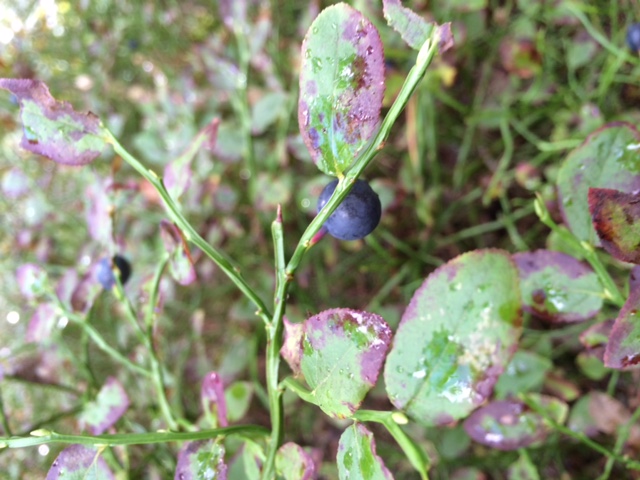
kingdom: Plantae
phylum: Tracheophyta
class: Magnoliopsida
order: Ericales
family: Ericaceae
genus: Vaccinium
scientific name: Vaccinium myrtillus
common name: Bilberry
